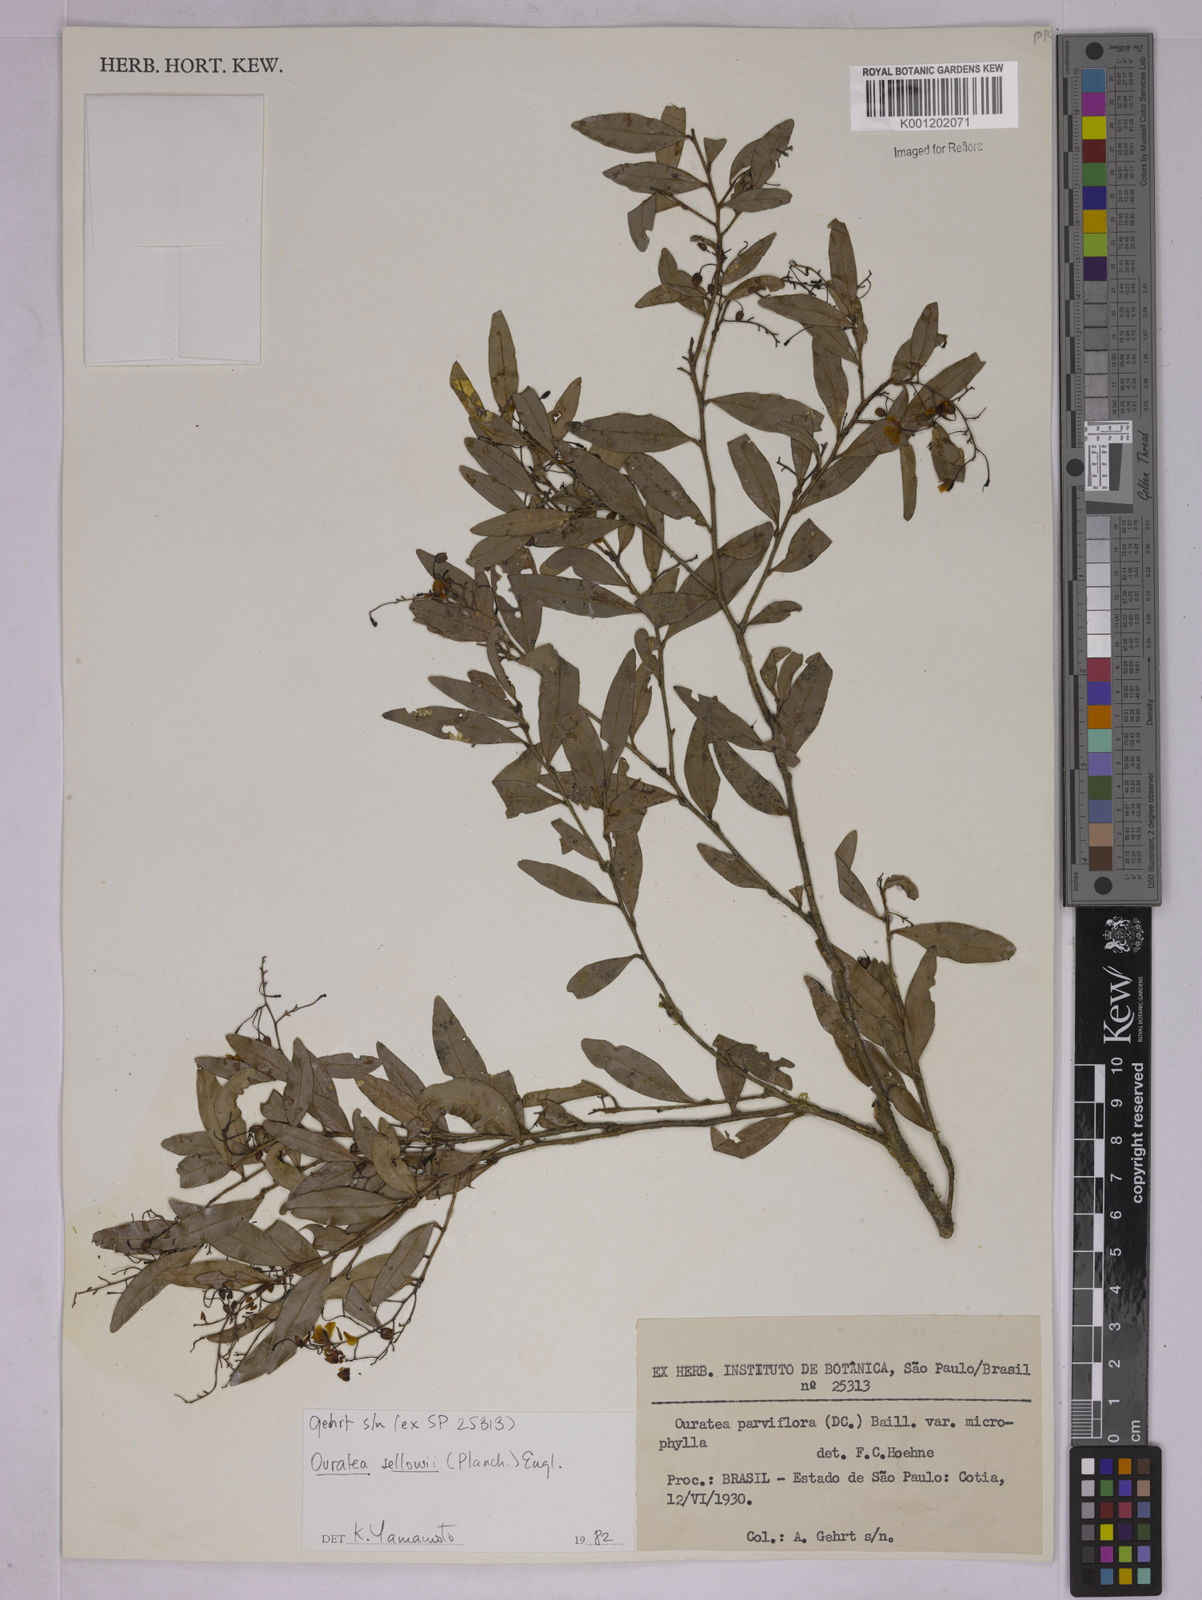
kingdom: Plantae
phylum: Tracheophyta
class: Magnoliopsida
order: Malpighiales
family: Ochnaceae
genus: Ouratea
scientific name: Ouratea sellowii
